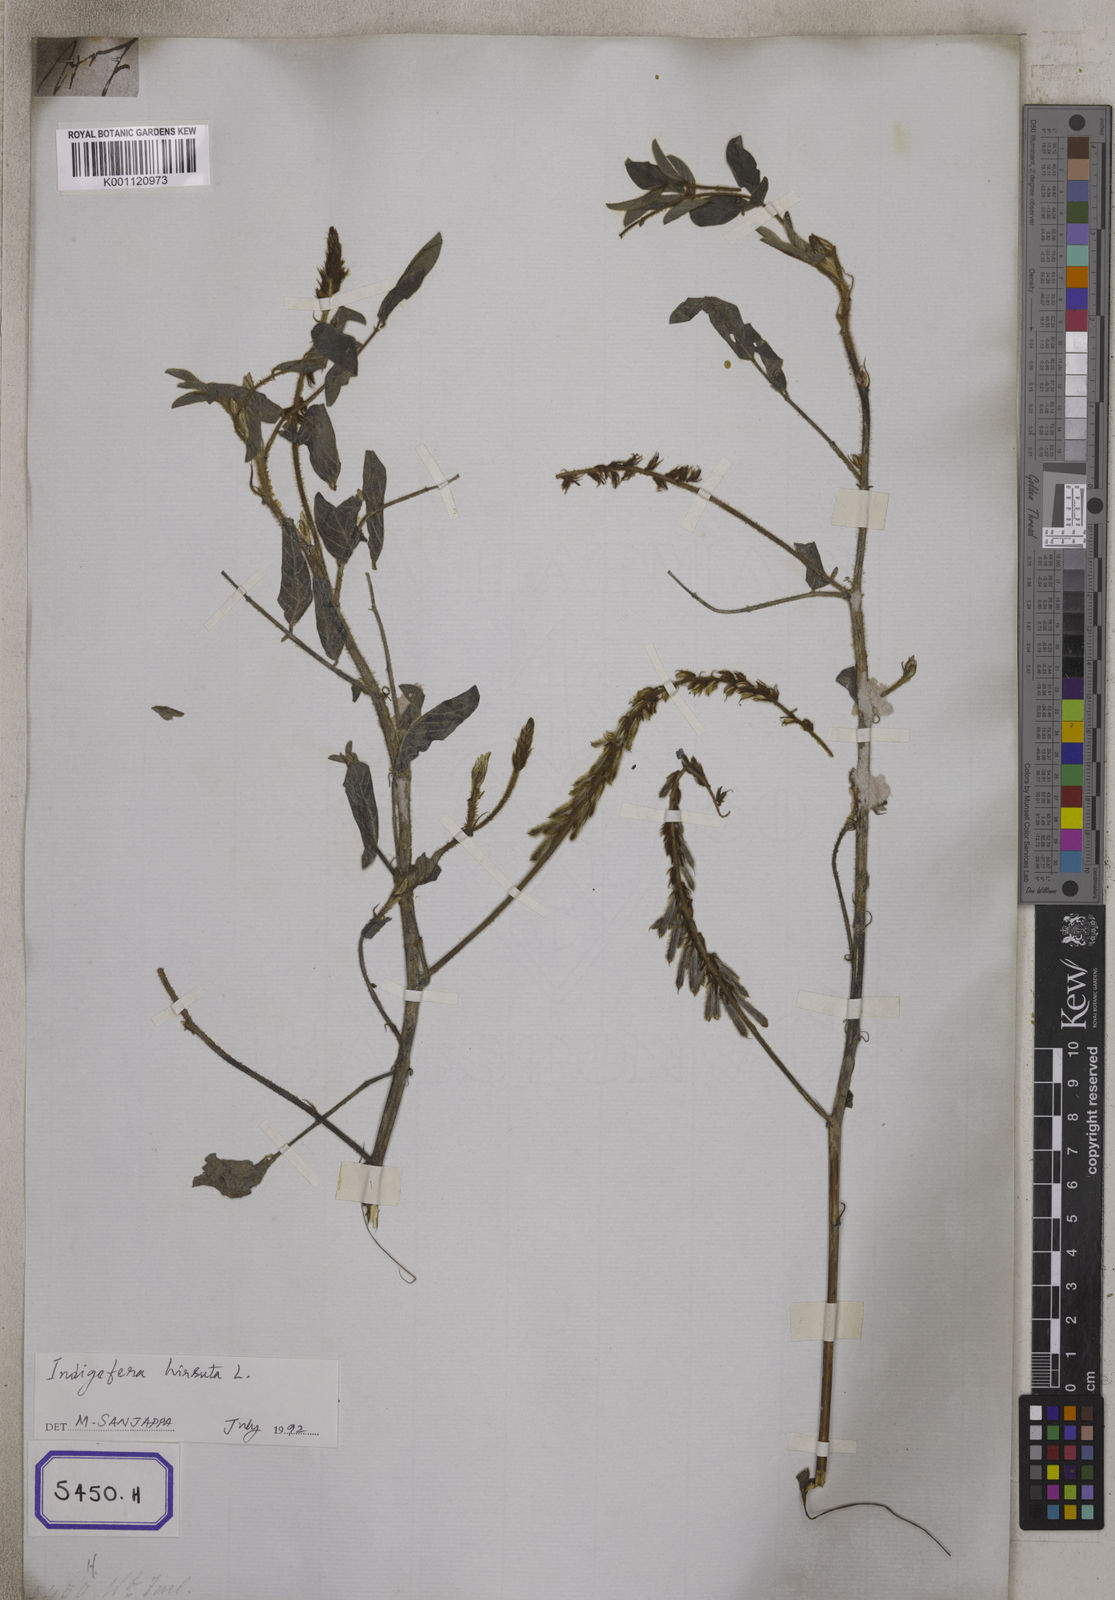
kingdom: Plantae
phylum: Tracheophyta
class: Magnoliopsida
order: Fabales
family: Fabaceae
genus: Indigofera
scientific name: Indigofera hirsuta
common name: Hairy indigo
